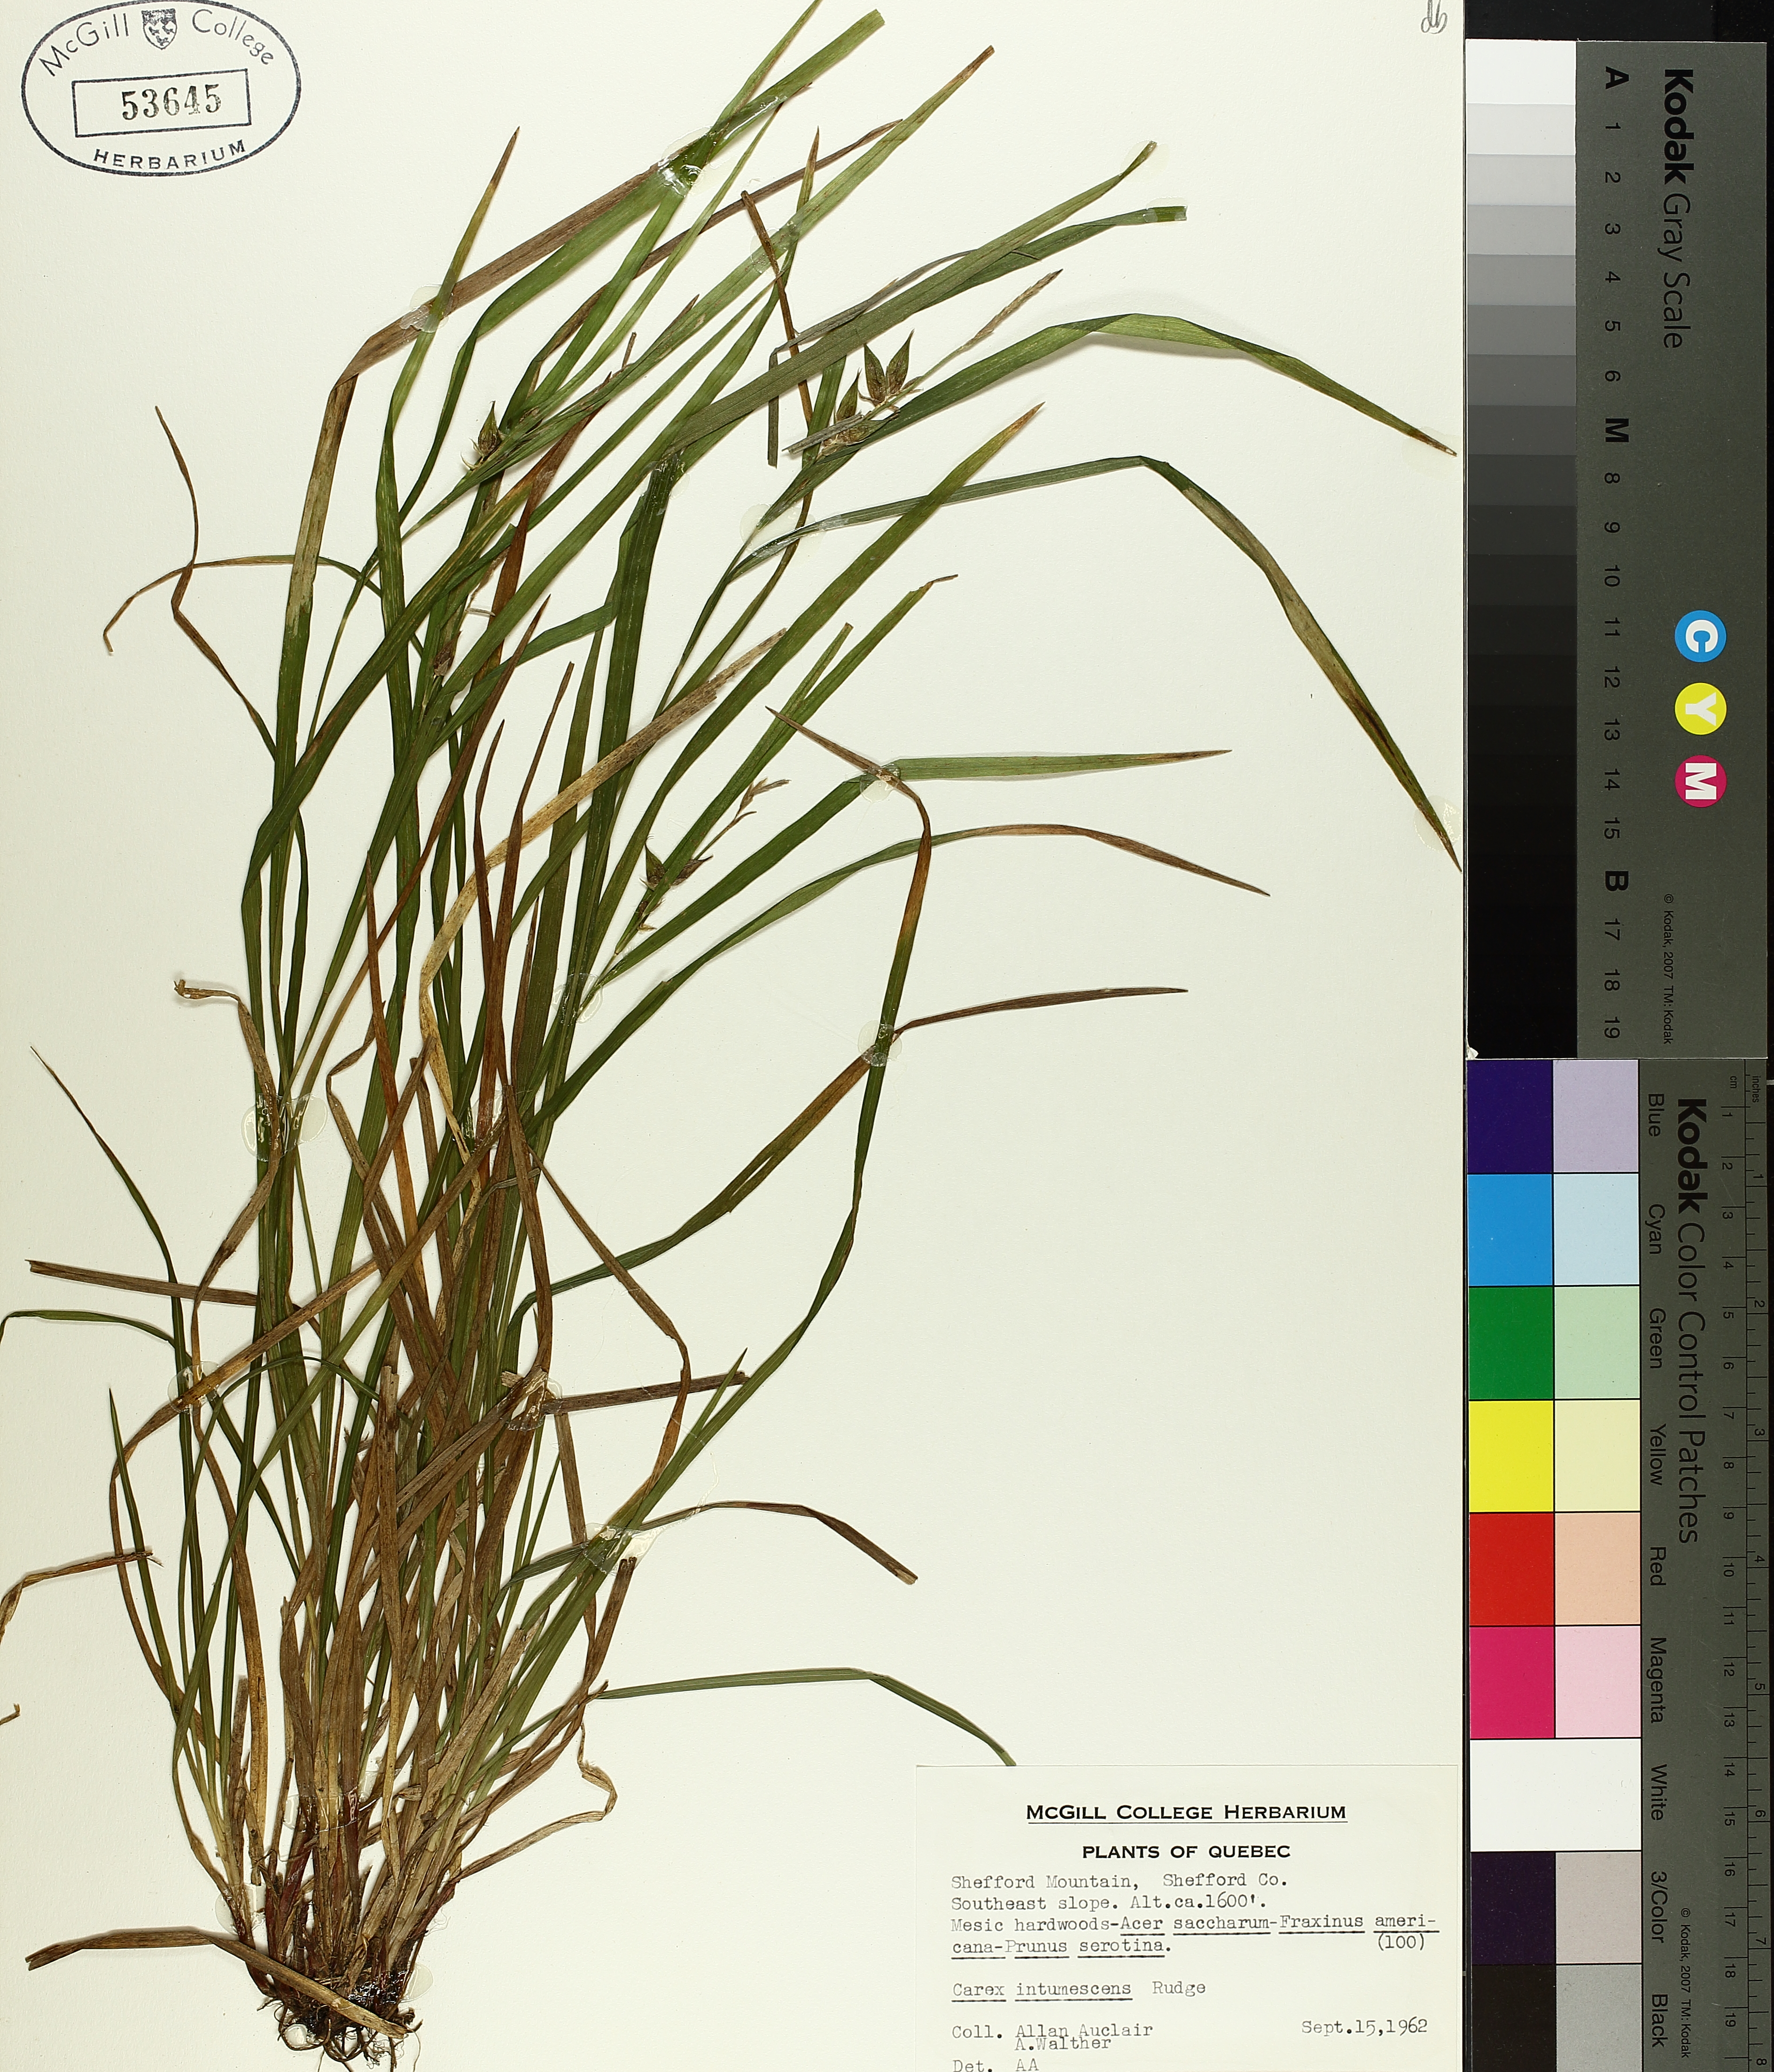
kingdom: Plantae
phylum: Tracheophyta
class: Liliopsida
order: Poales
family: Cyperaceae
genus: Carex
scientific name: Carex intumescens
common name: Greater bladder sedge
